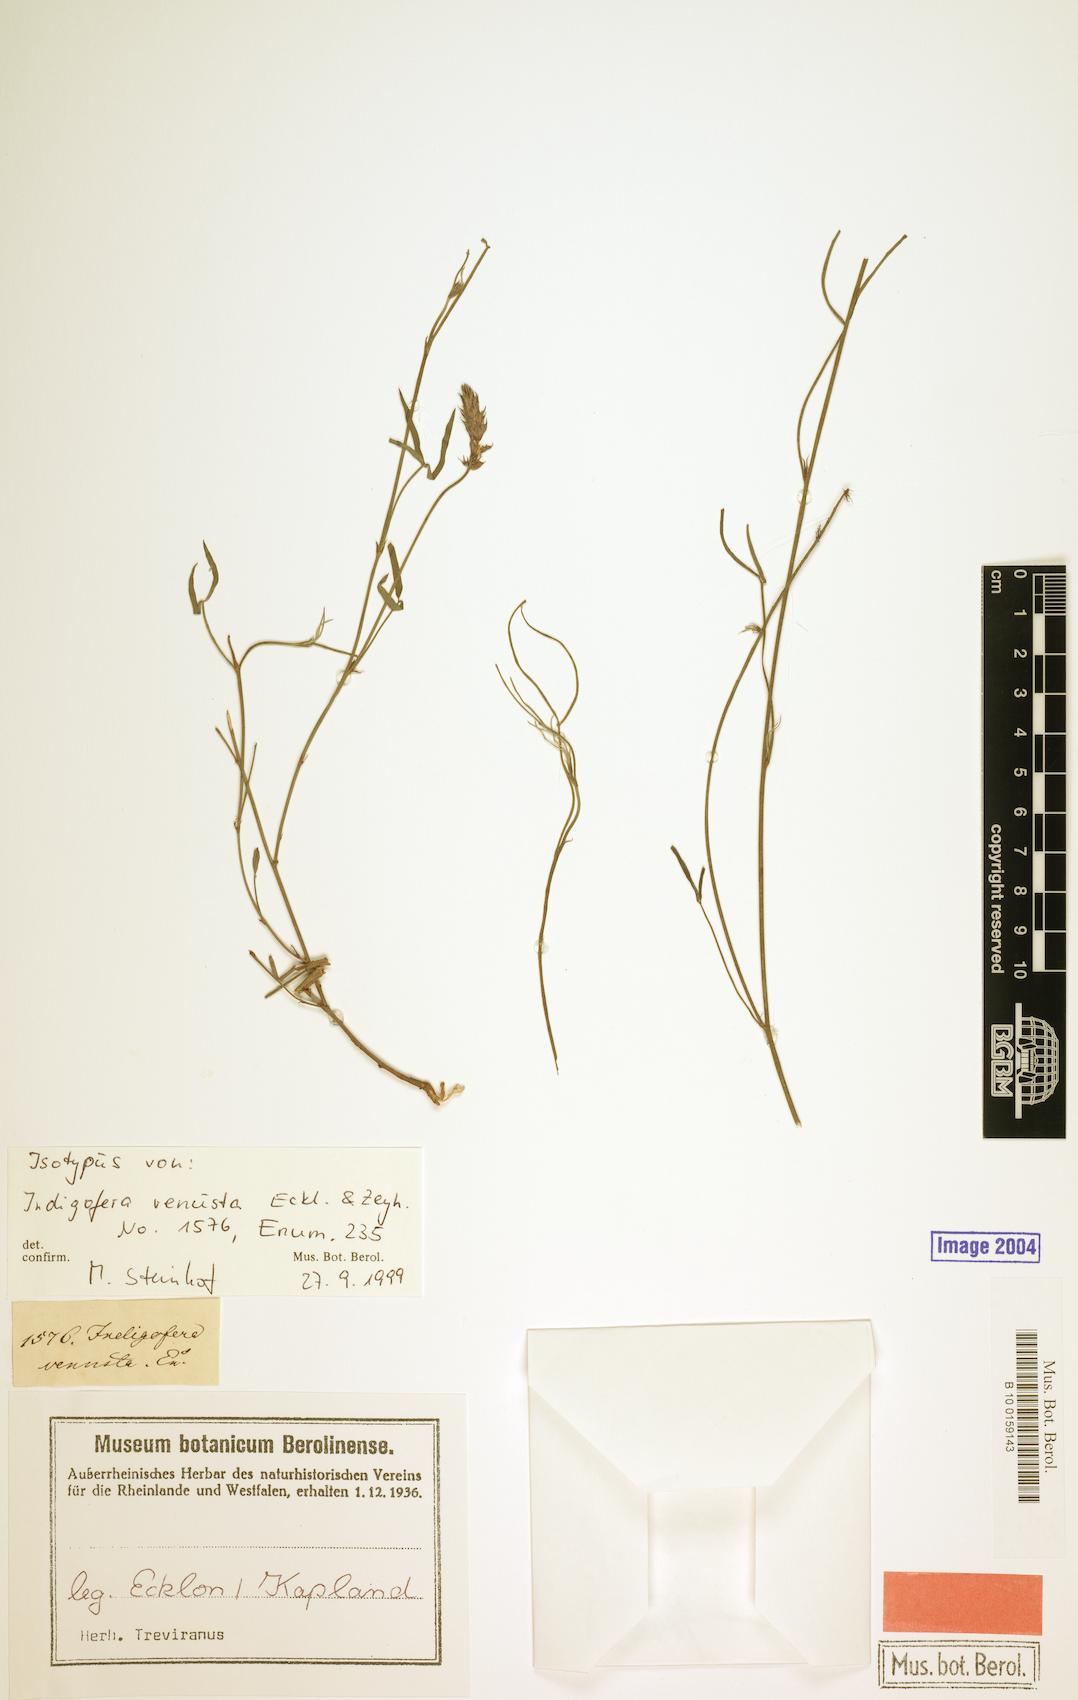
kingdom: Plantae
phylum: Tracheophyta
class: Magnoliopsida
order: Fabales
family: Fabaceae
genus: Indigofera
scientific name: Indigofera venusta
